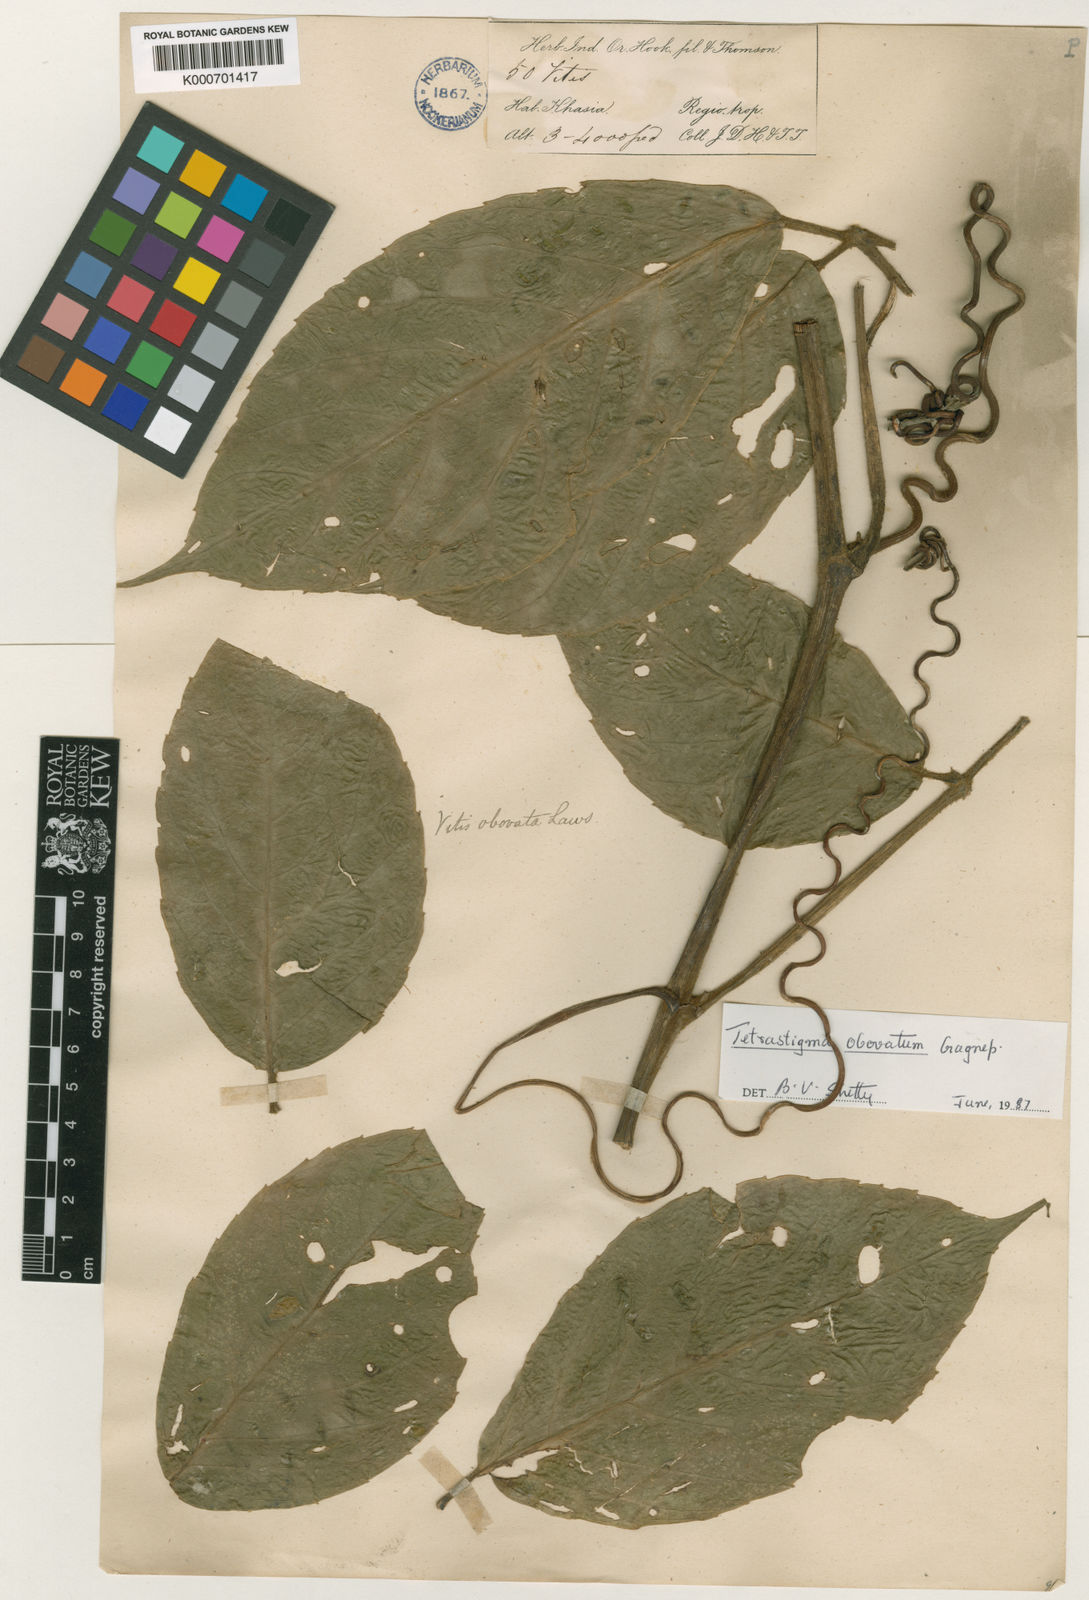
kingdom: Plantae
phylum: Tracheophyta
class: Magnoliopsida
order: Vitales
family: Vitaceae
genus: Tetrastigma
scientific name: Tetrastigma obovatum
